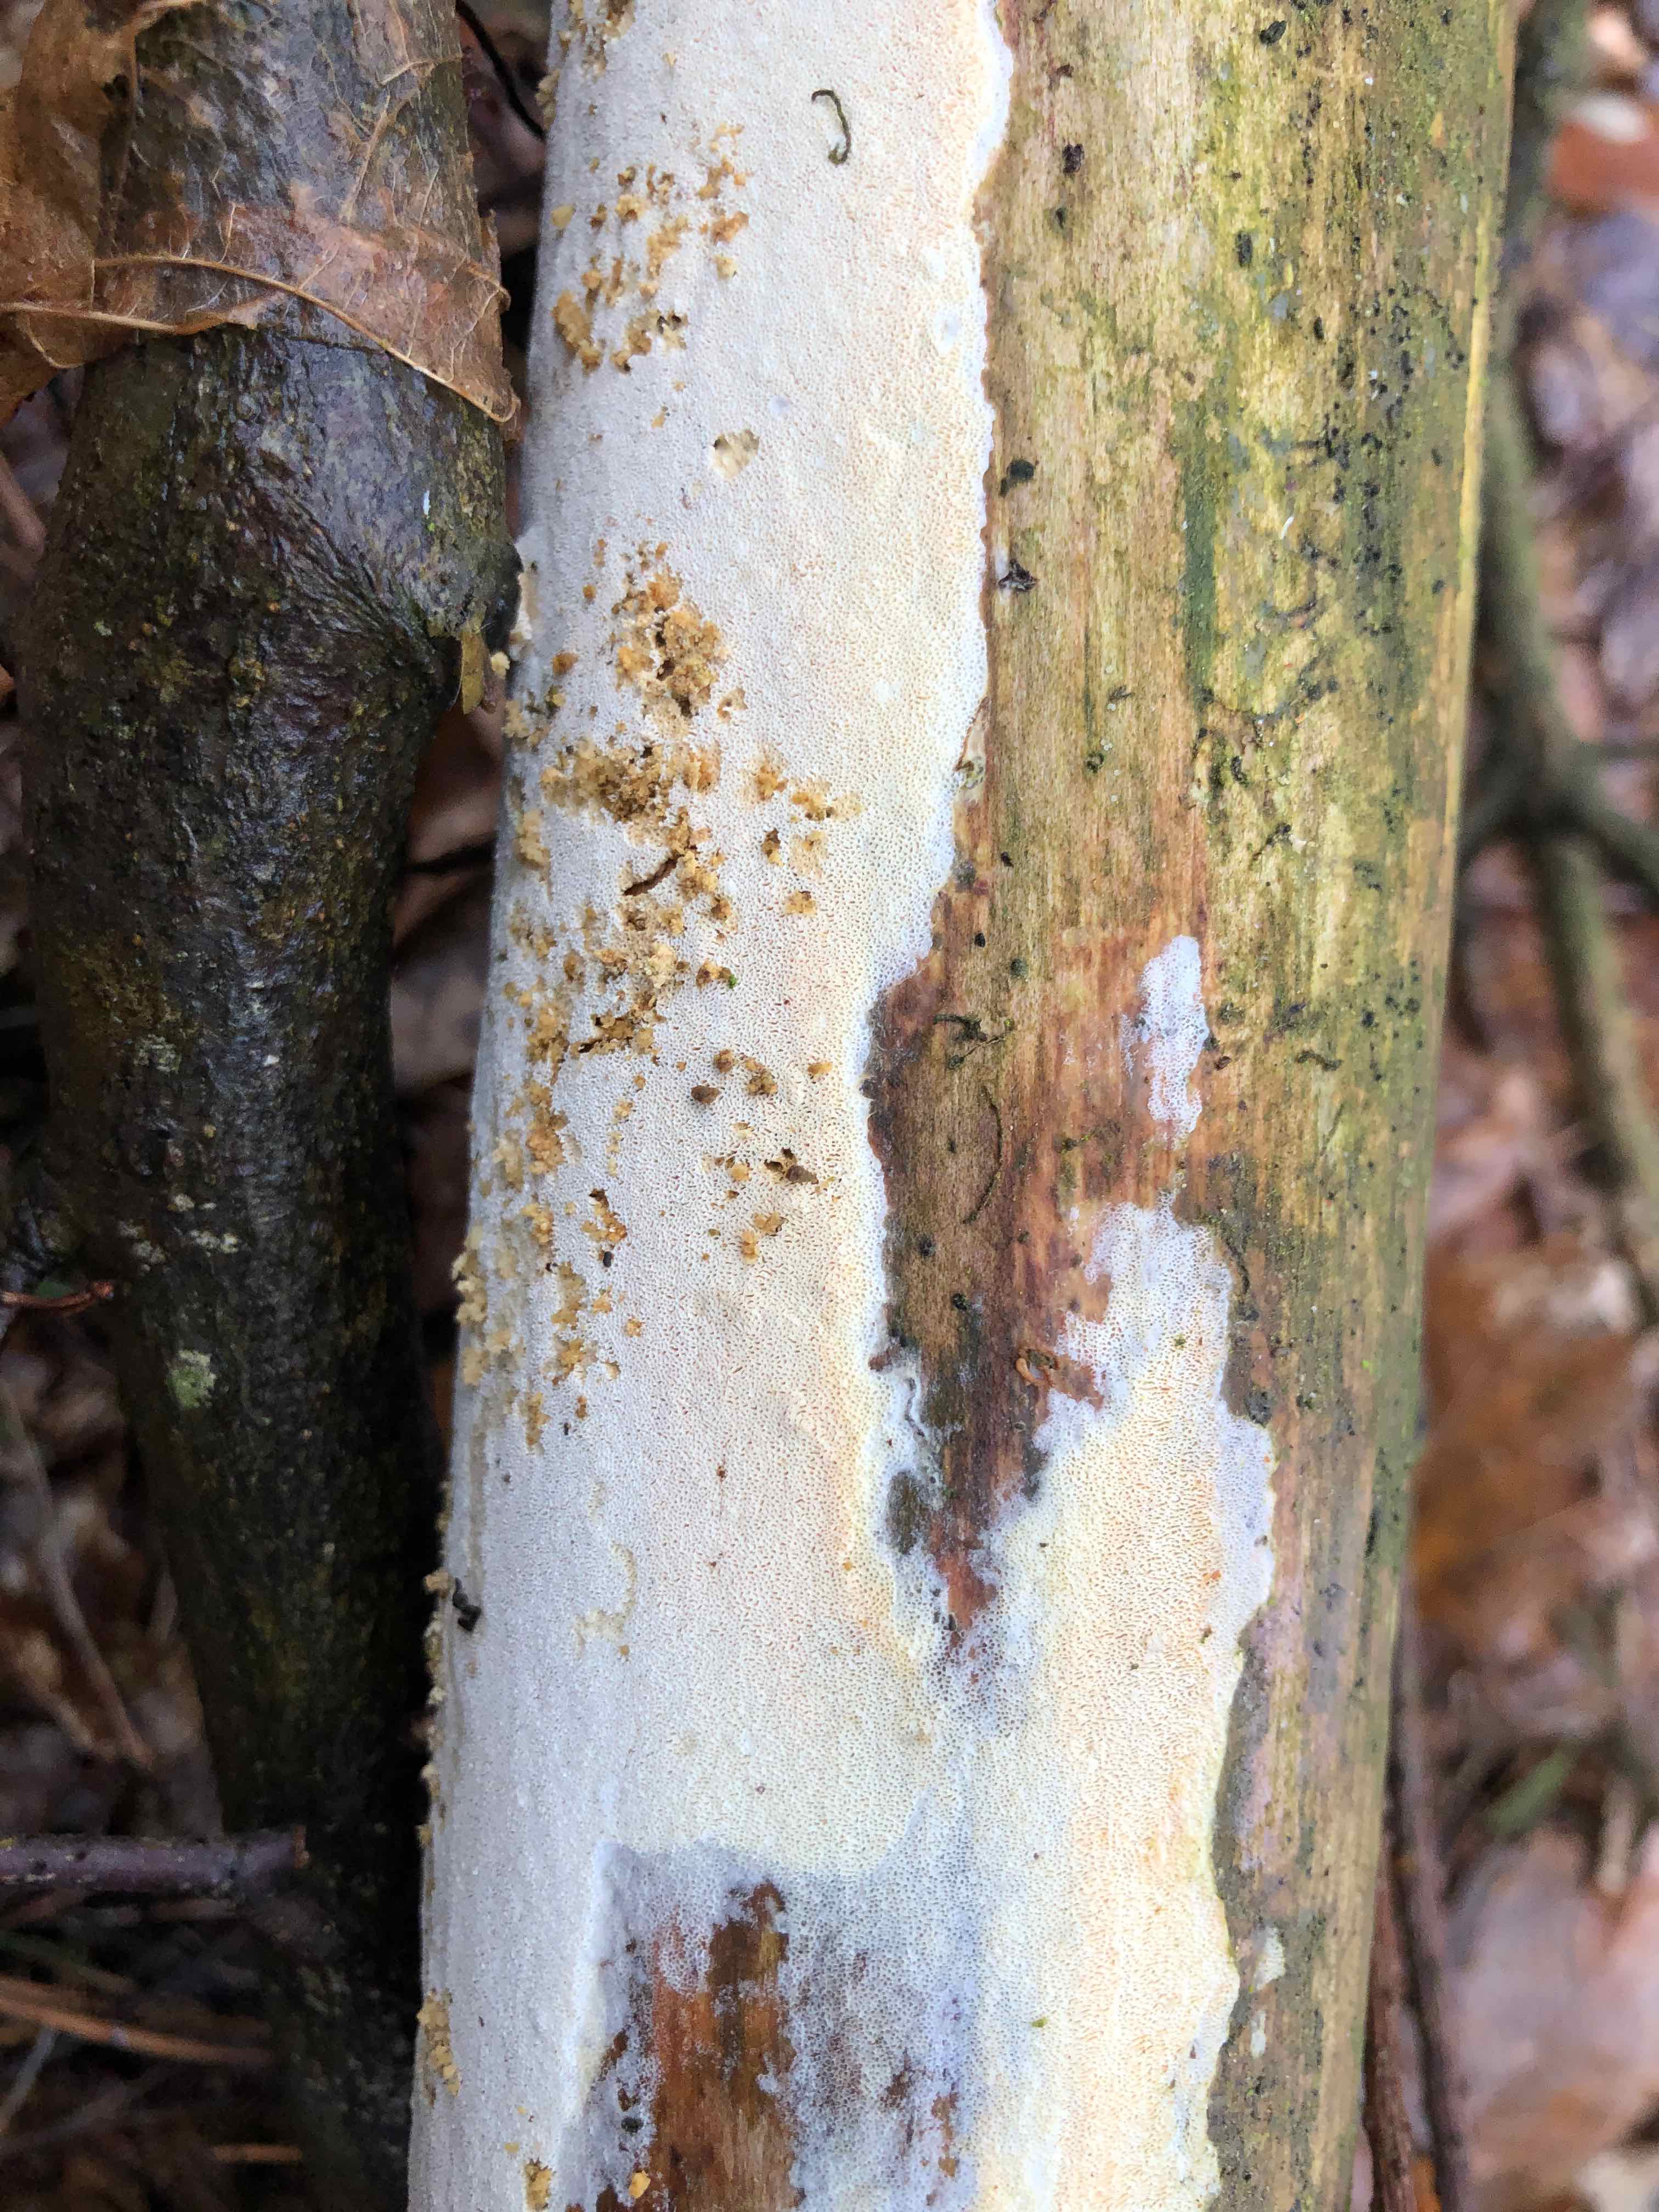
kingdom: Fungi
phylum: Basidiomycota
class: Agaricomycetes
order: Polyporales
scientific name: Polyporales
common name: poresvampordenen
